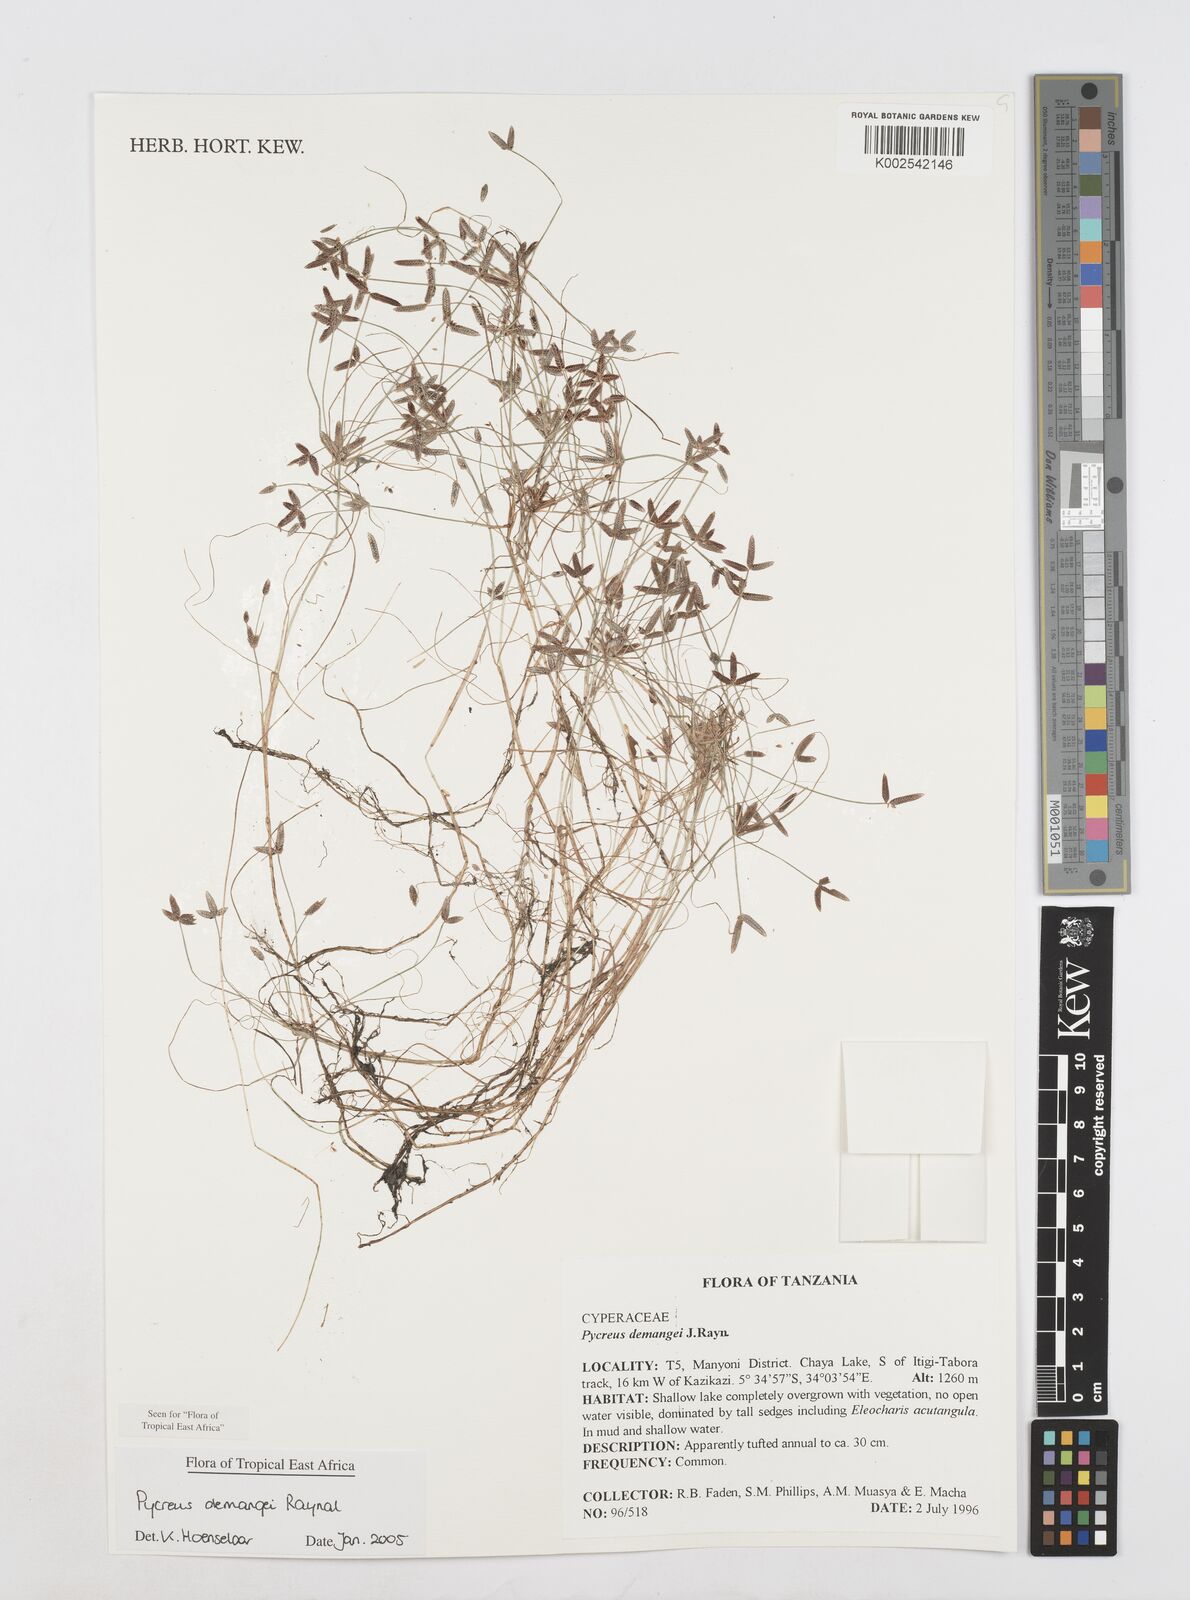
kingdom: Plantae
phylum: Tracheophyta
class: Liliopsida
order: Poales
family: Cyperaceae
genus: Cyperus
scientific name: Cyperus demangei
